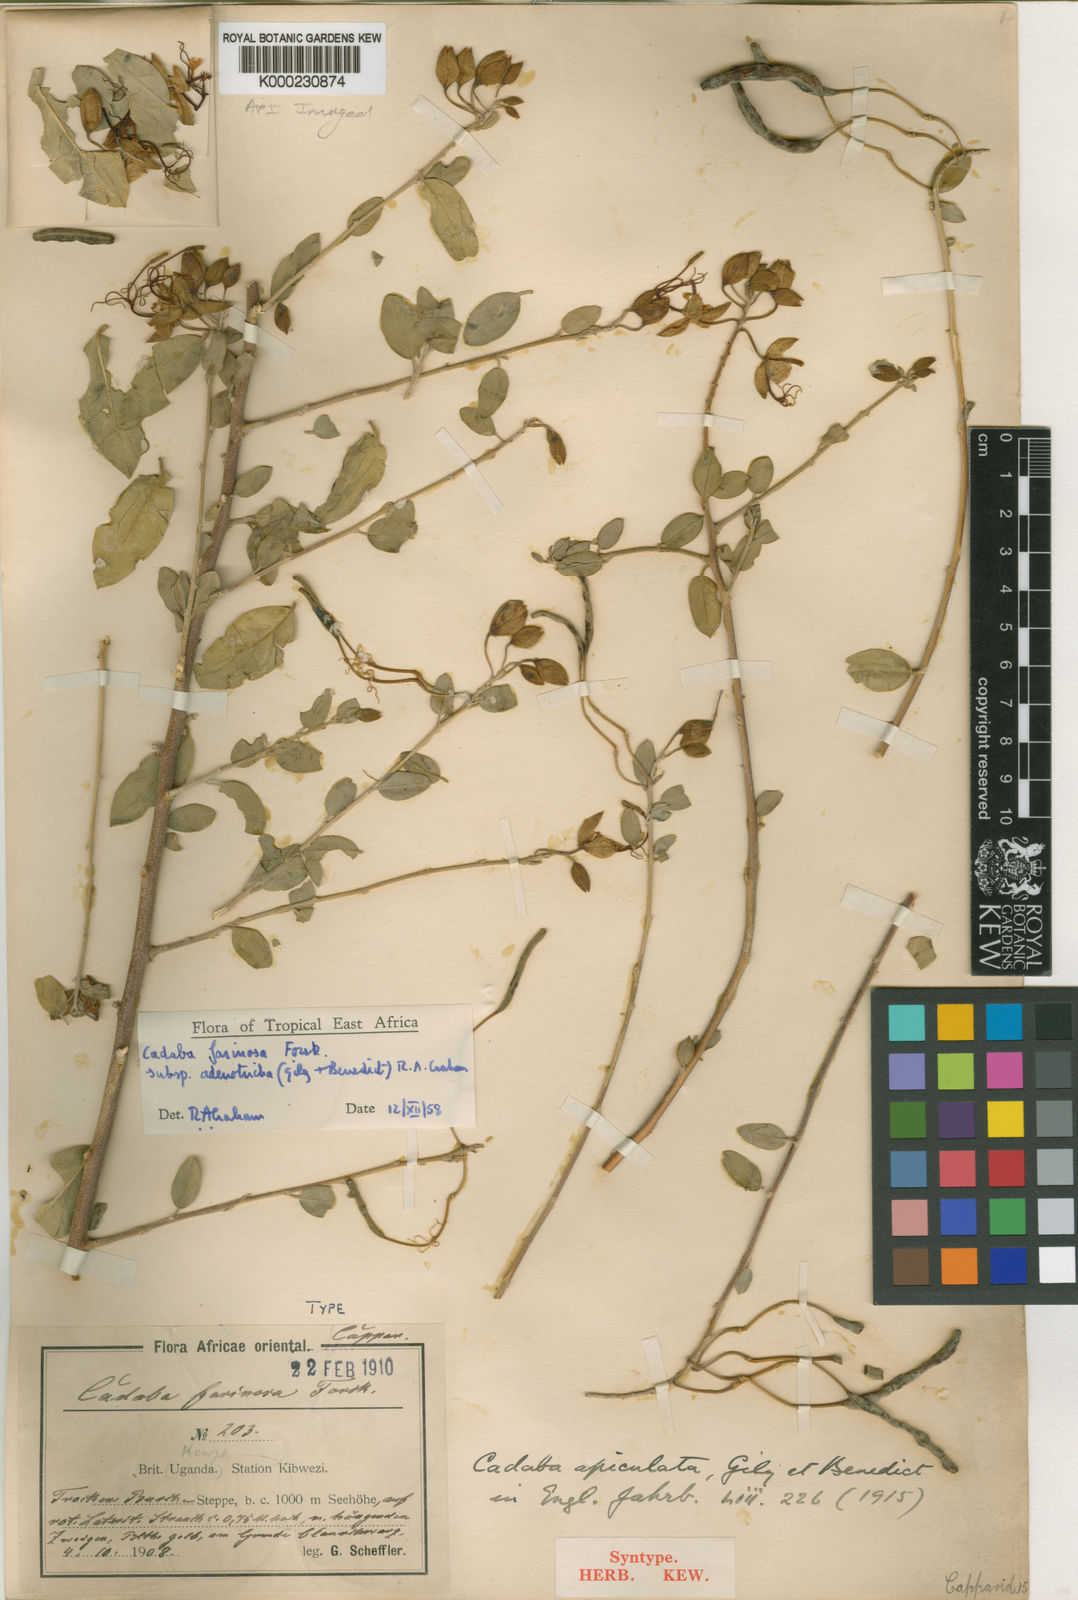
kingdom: Plantae
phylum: Tracheophyta
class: Magnoliopsida
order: Brassicales
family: Capparaceae
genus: Cadaba
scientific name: Cadaba farinosa
